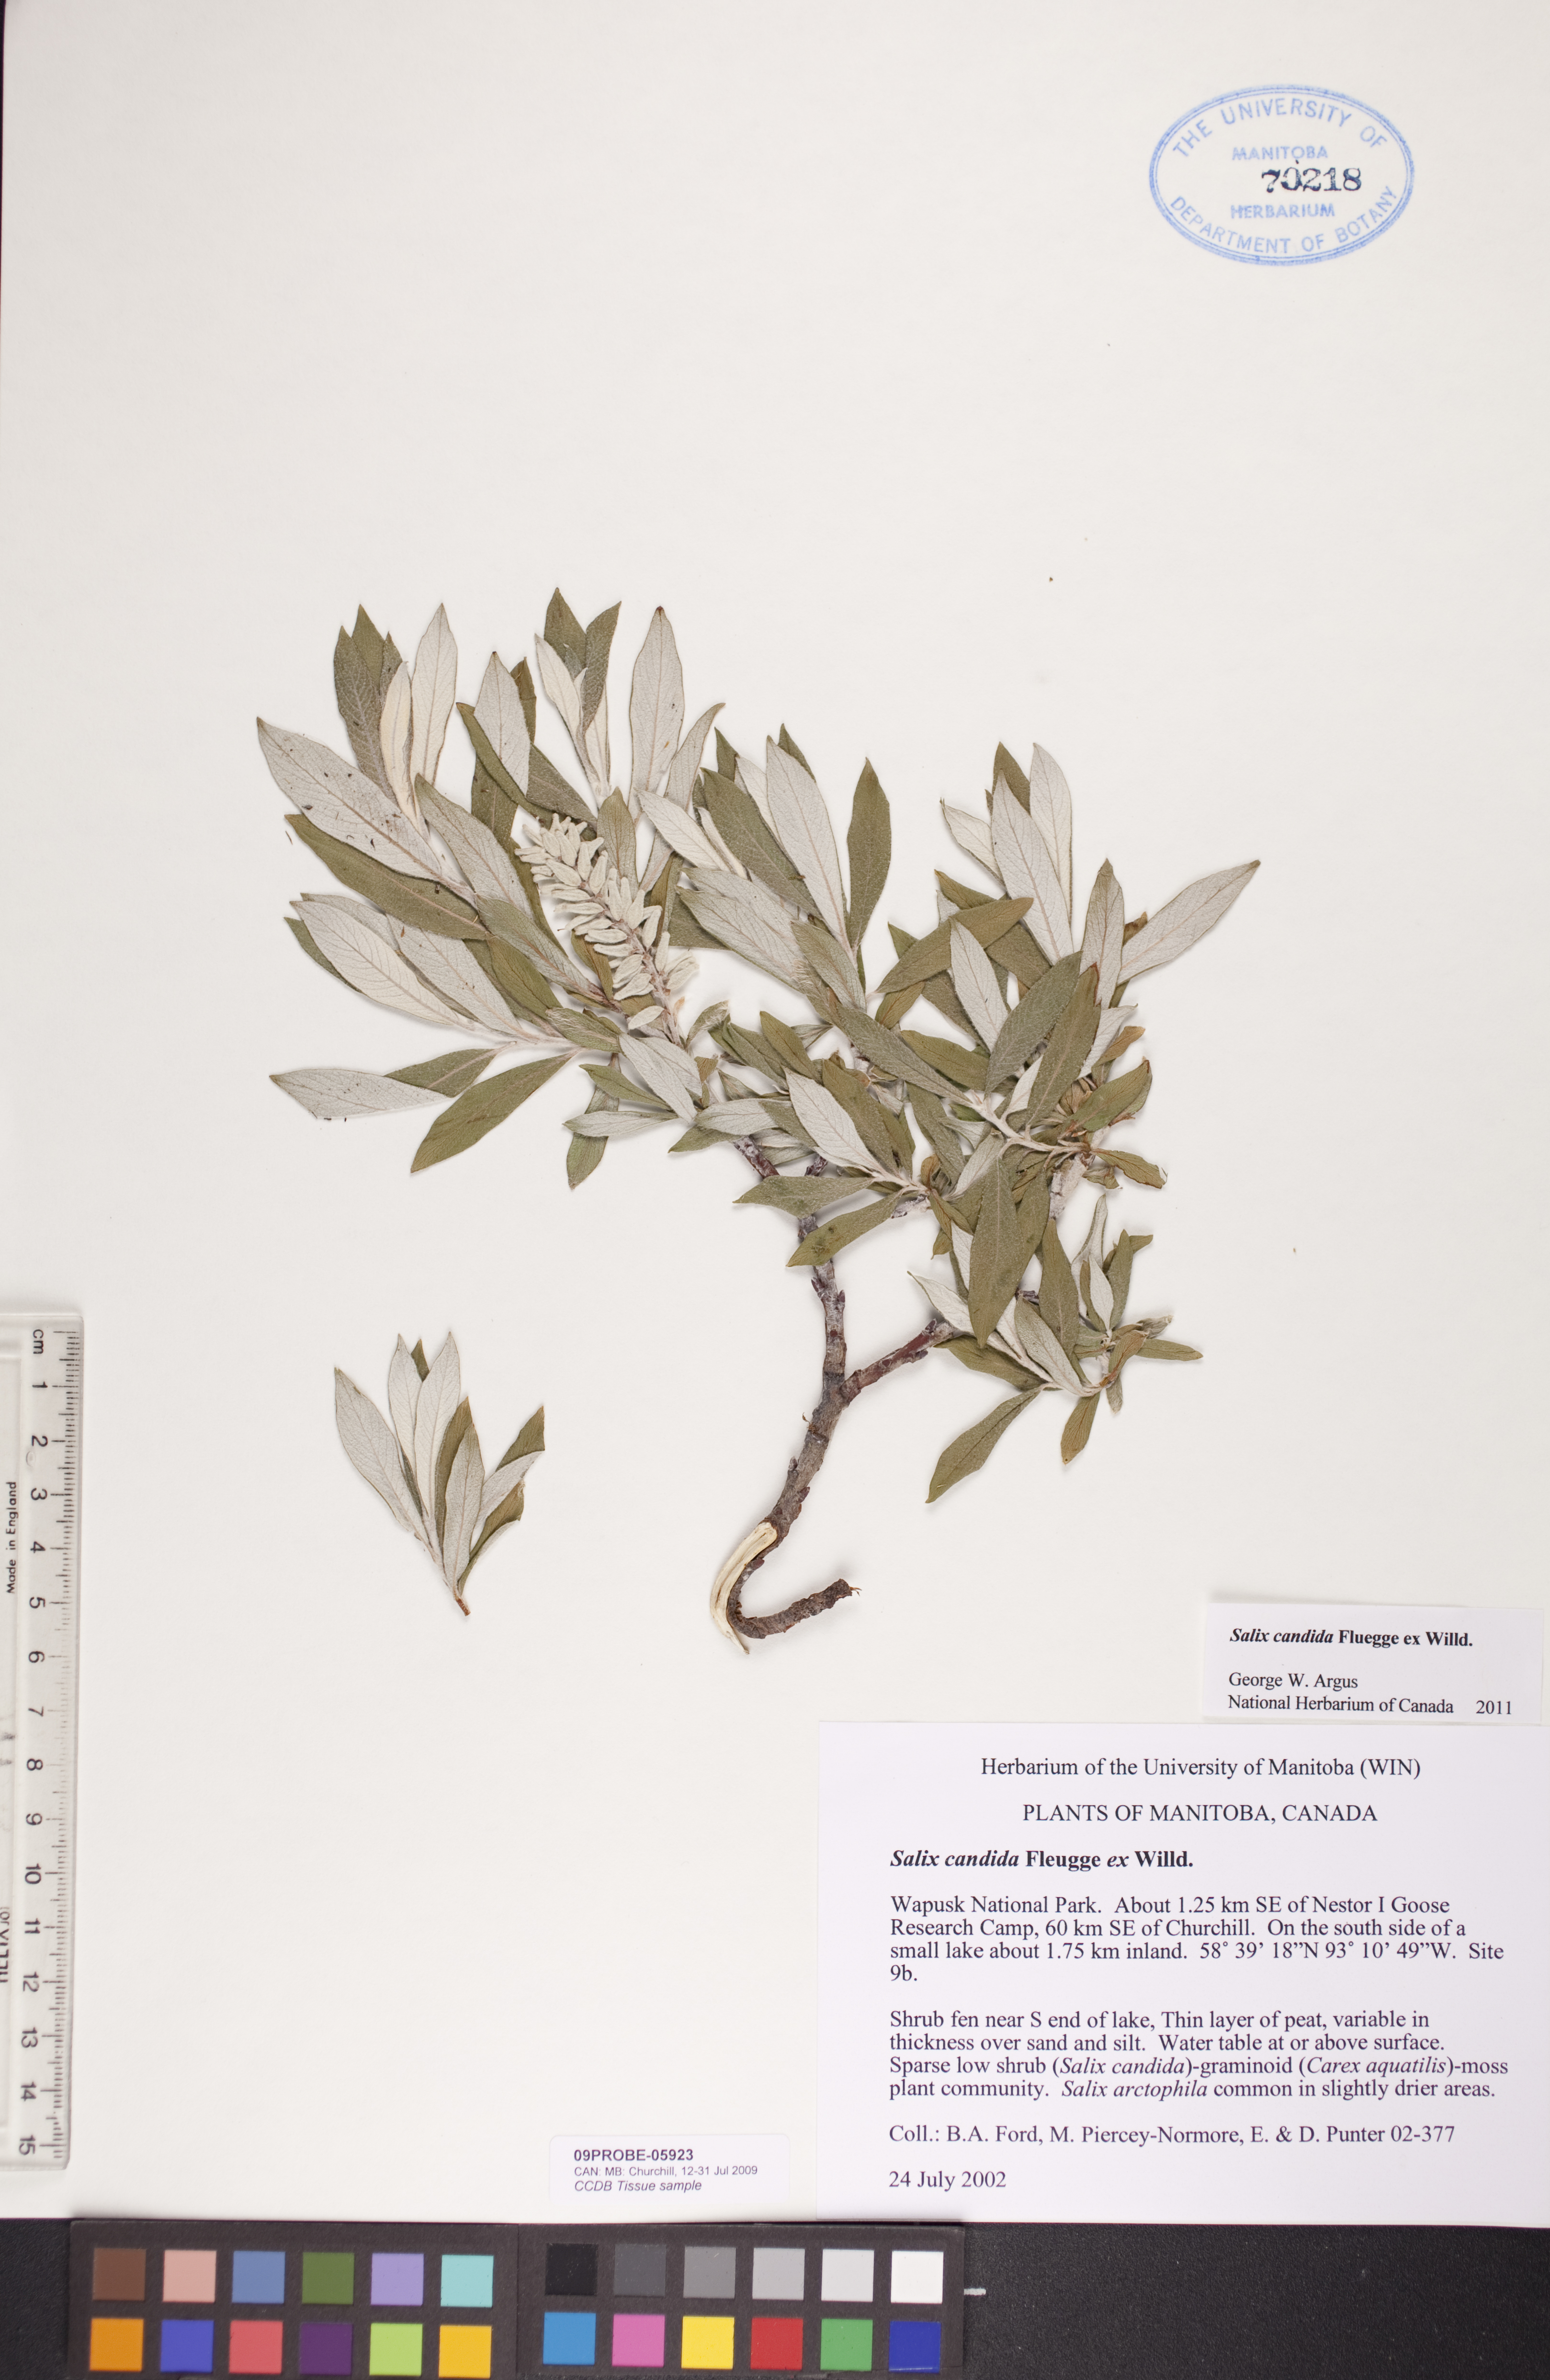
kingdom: Plantae
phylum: Tracheophyta
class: Magnoliopsida
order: Malpighiales
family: Salicaceae
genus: Salix
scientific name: Salix candida
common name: Hoary willow
